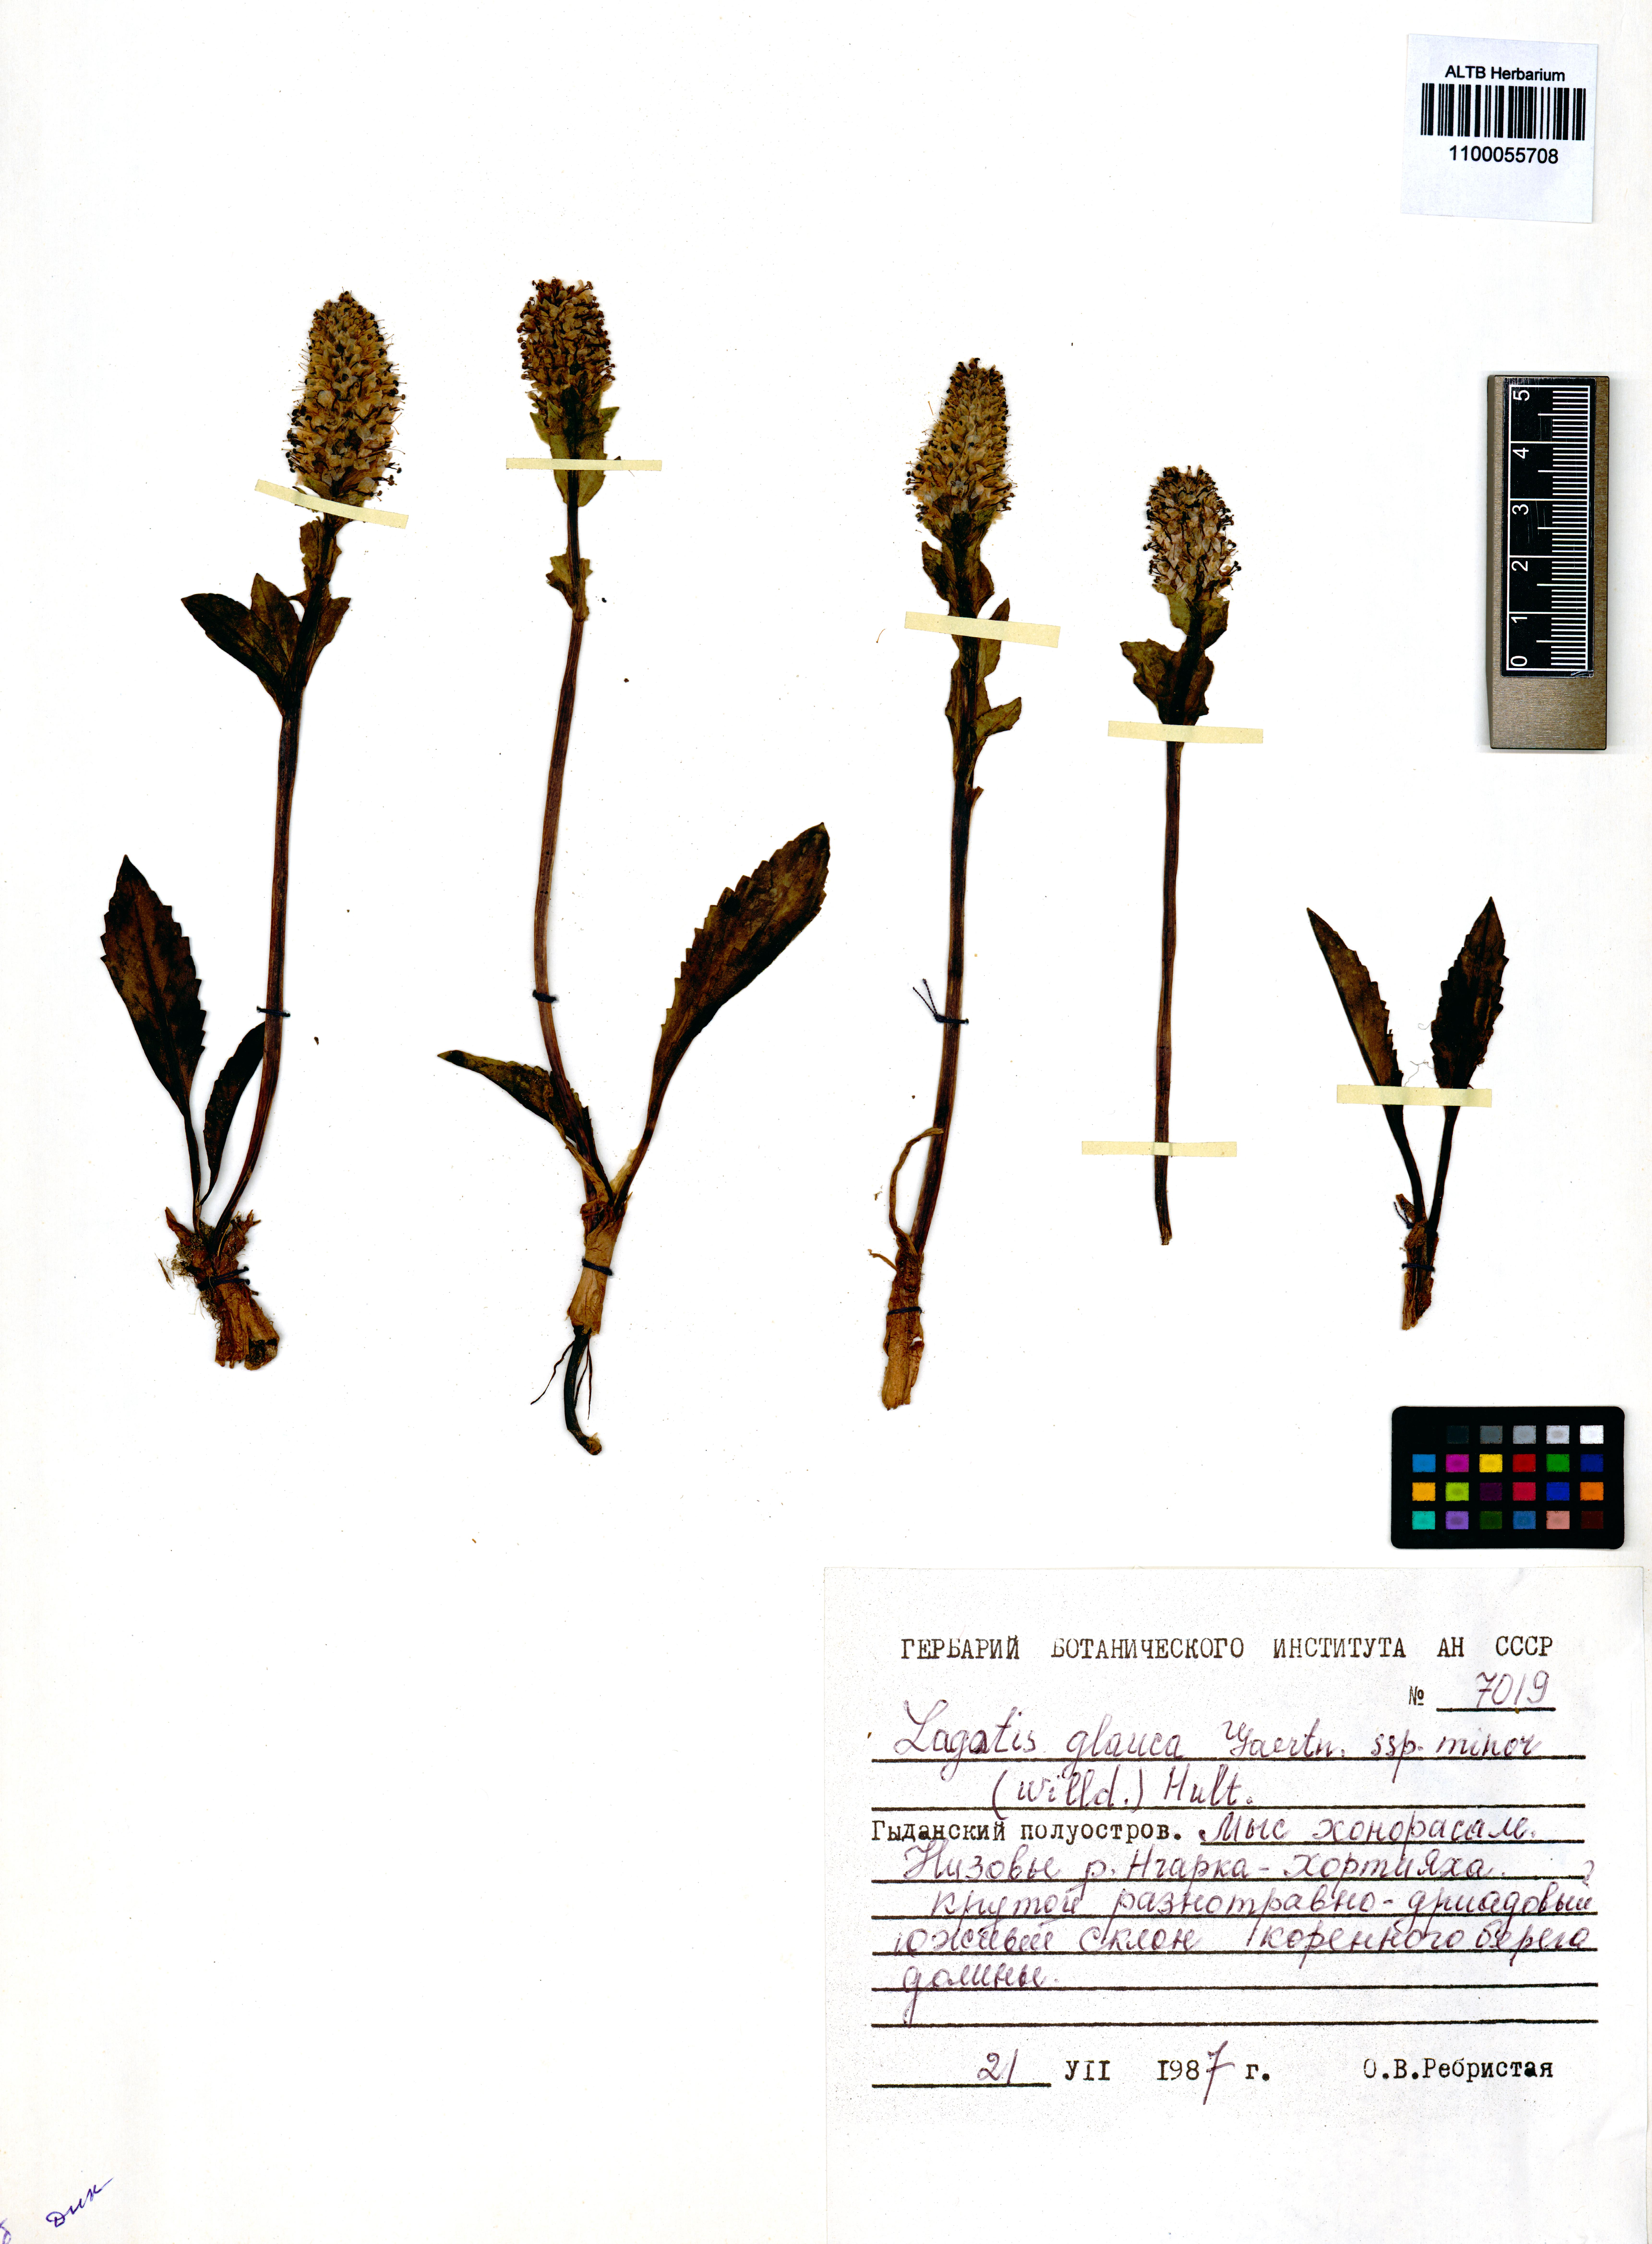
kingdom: Plantae
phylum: Tracheophyta
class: Magnoliopsida
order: Lamiales
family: Plantaginaceae
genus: Lagotis
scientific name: Lagotis glauca
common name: Glaucous weaselsnout
